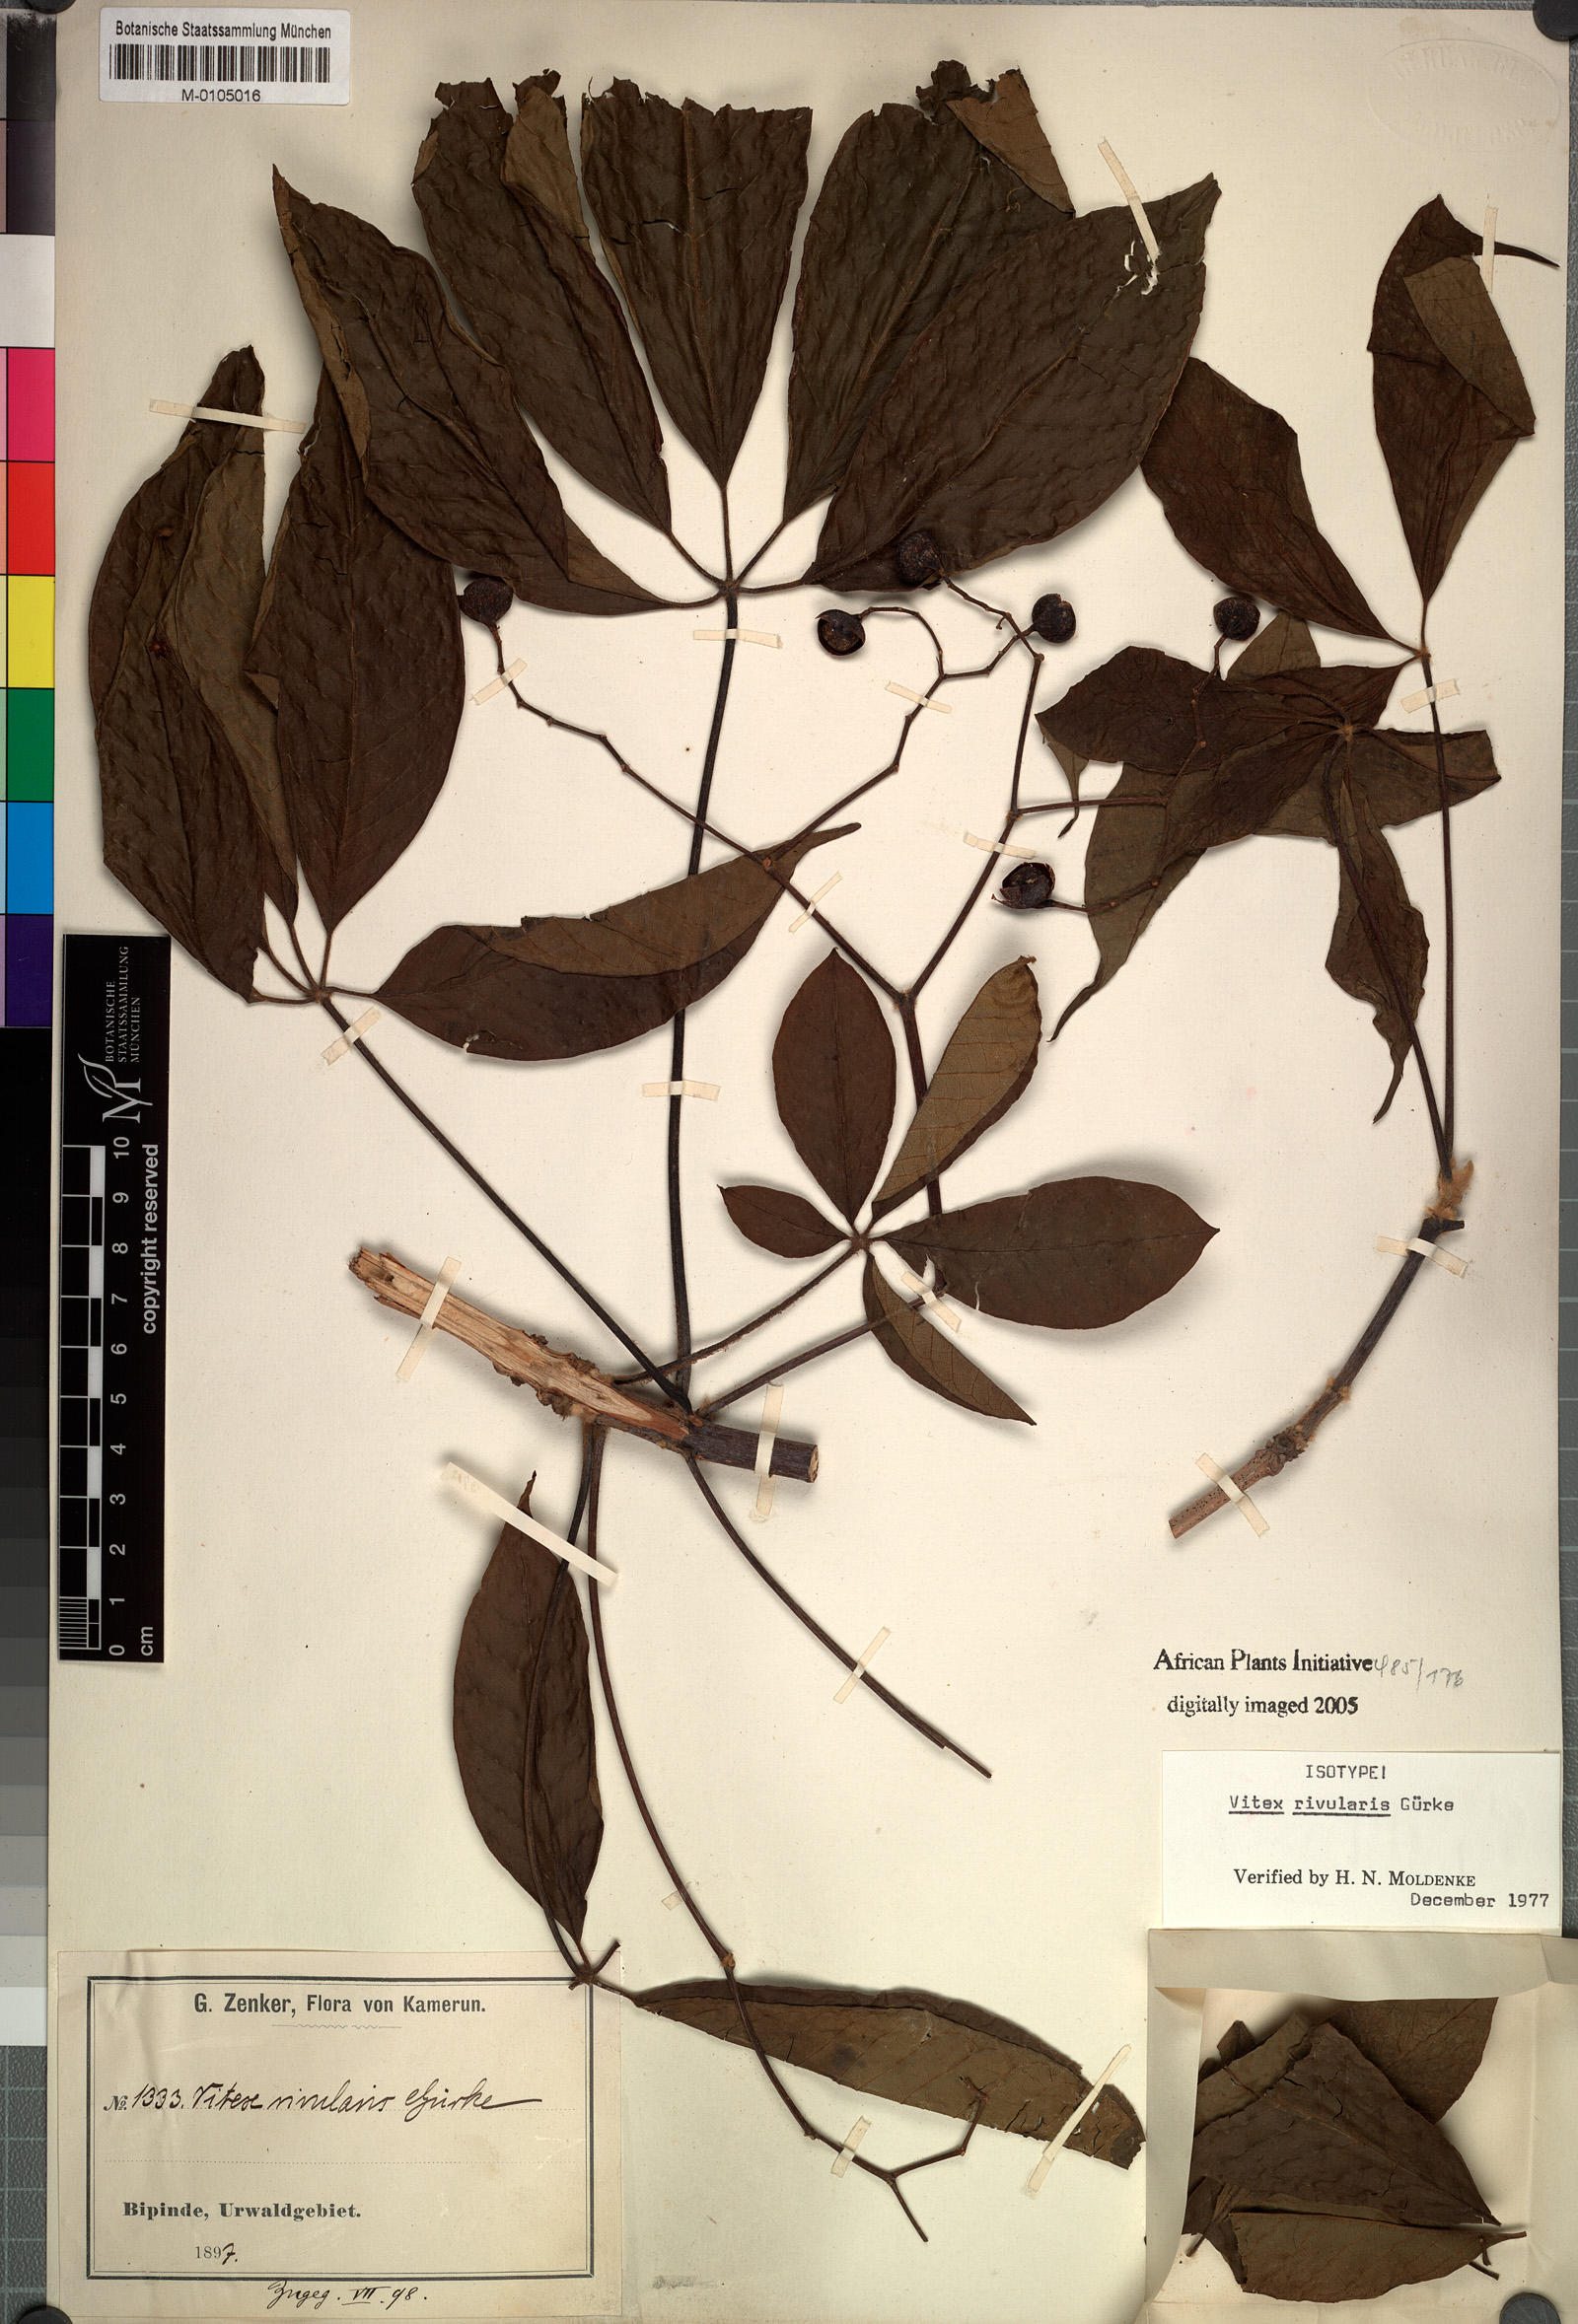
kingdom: Plantae
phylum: Tracheophyta
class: Magnoliopsida
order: Lamiales
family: Lamiaceae
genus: Vitex
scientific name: Vitex rivularis
